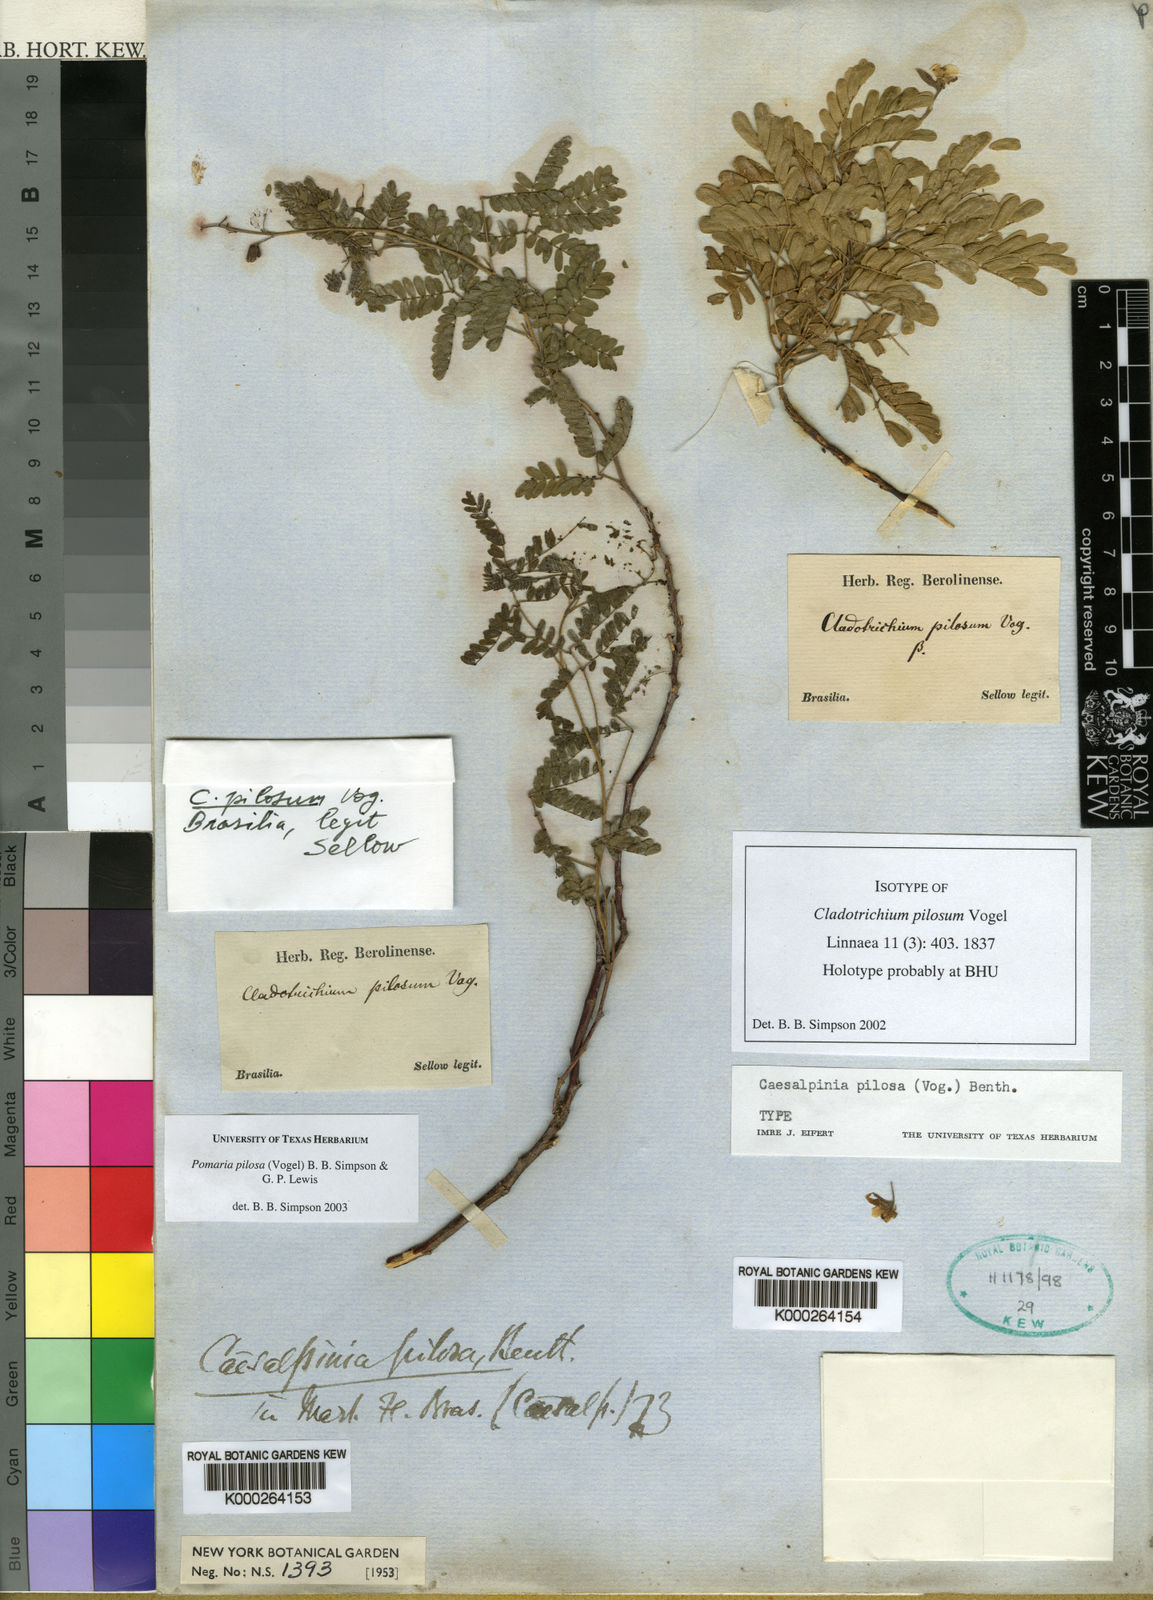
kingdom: Plantae
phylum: Tracheophyta
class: Magnoliopsida
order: Fabales
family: Fabaceae
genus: Pomaria
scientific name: Pomaria pilosa
